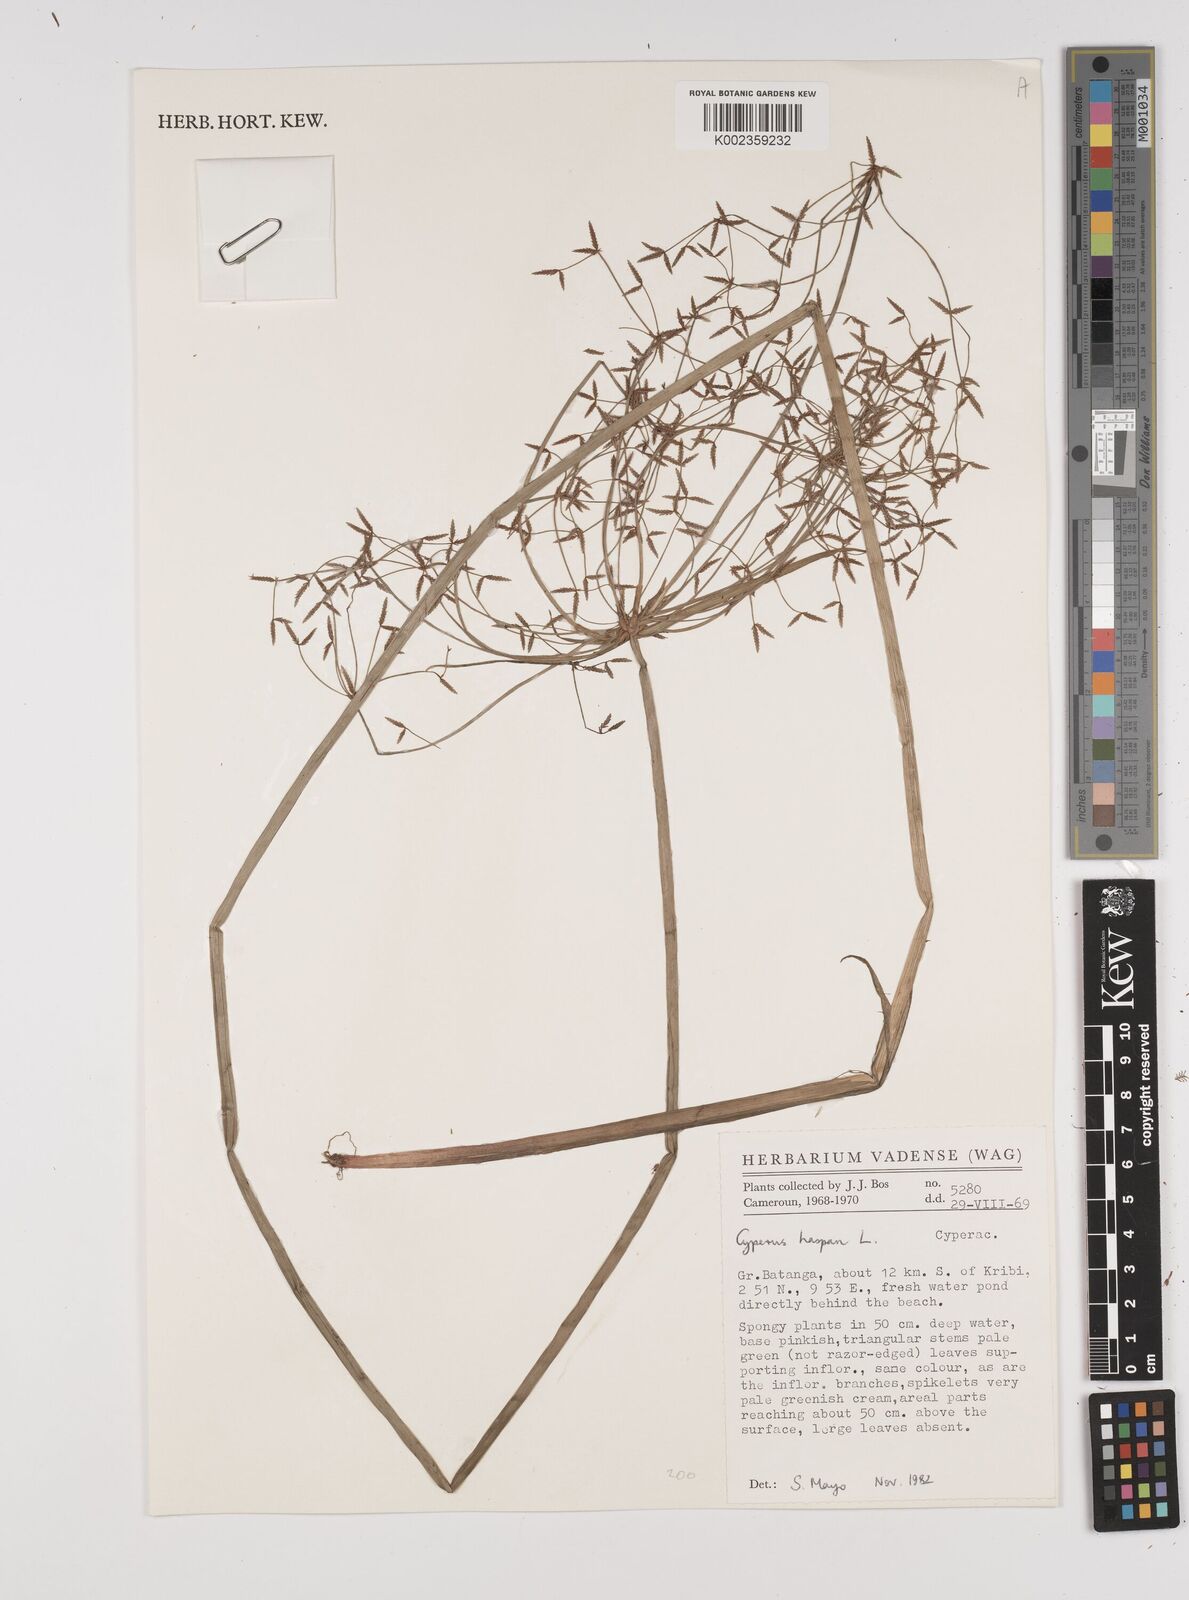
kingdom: Plantae
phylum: Tracheophyta
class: Liliopsida
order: Poales
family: Cyperaceae
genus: Cyperus
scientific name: Cyperus haspan
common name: Haspan flatsedge
